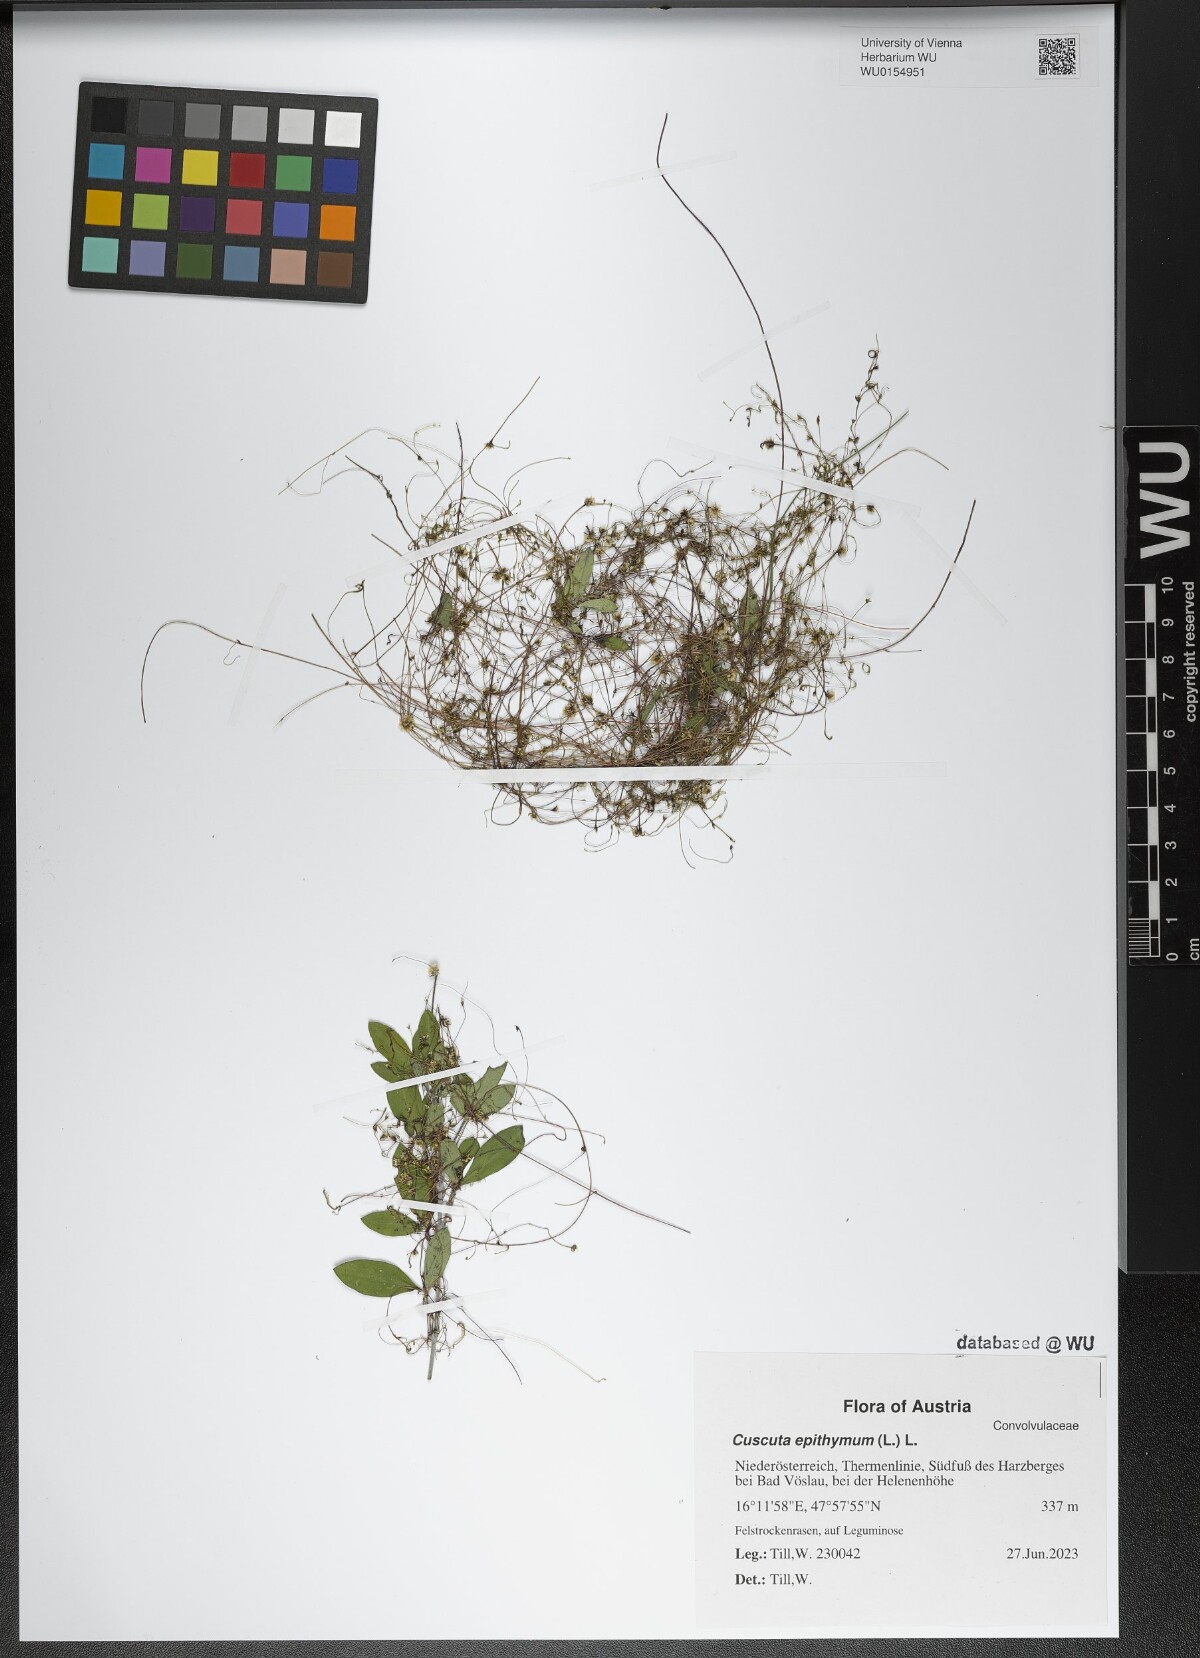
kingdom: Plantae
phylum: Tracheophyta
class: Magnoliopsida
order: Solanales
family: Convolvulaceae
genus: Cuscuta
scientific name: Cuscuta epithymum
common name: Clover dodder
